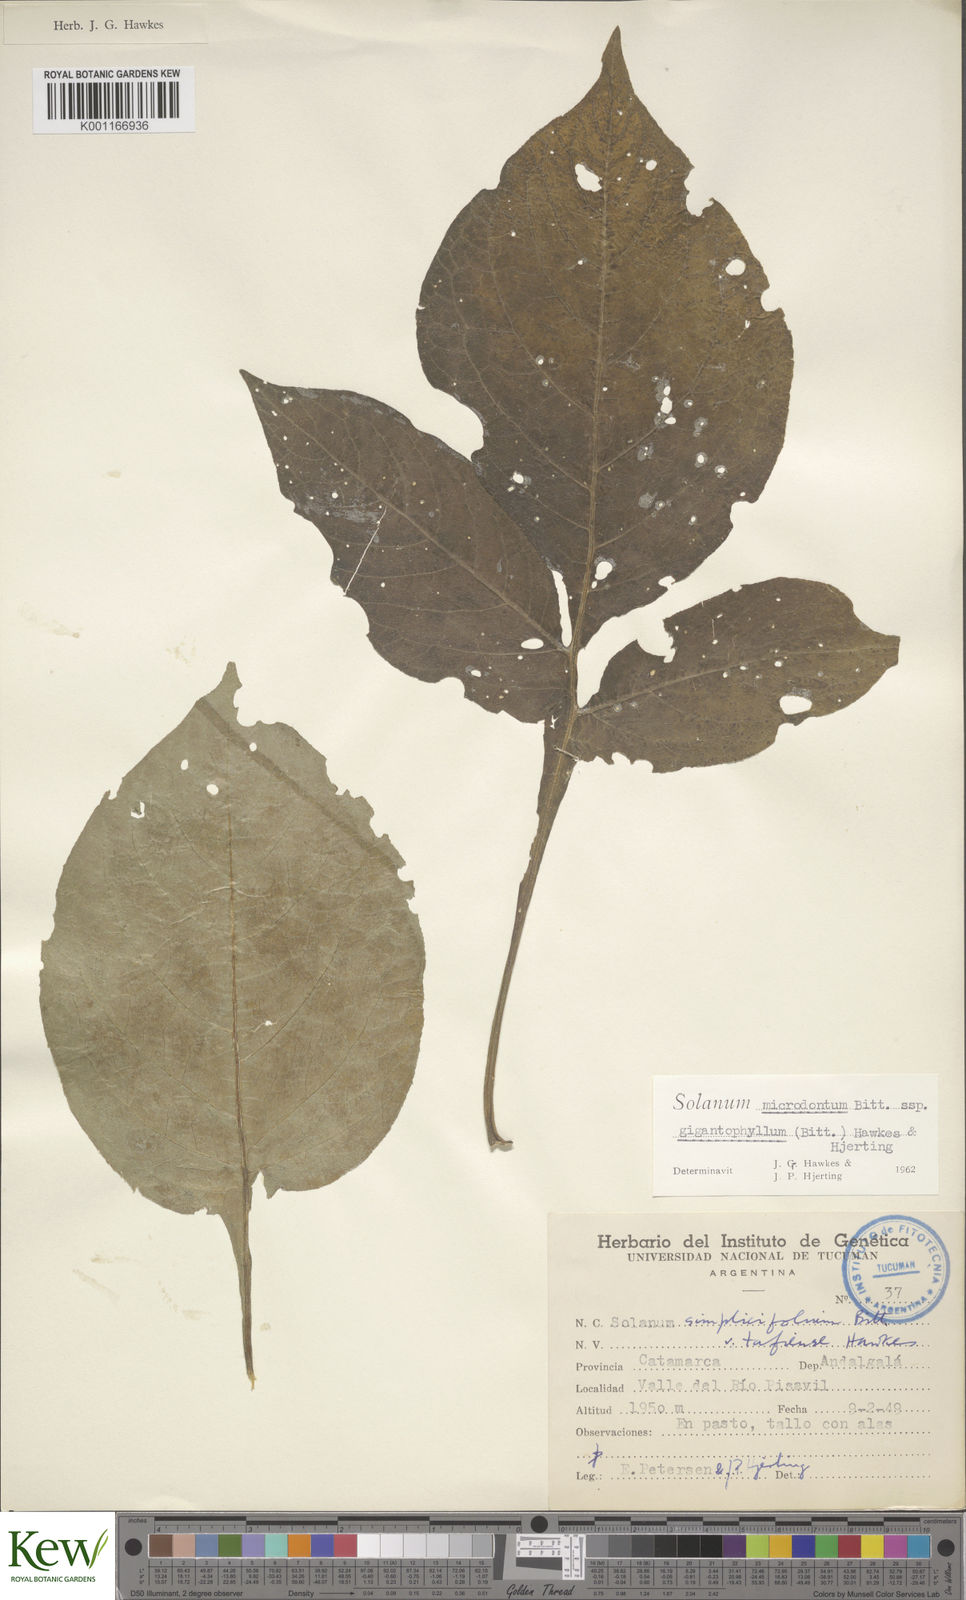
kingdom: Plantae
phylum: Tracheophyta
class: Magnoliopsida
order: Solanales
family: Solanaceae
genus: Solanum
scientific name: Solanum microdontum
